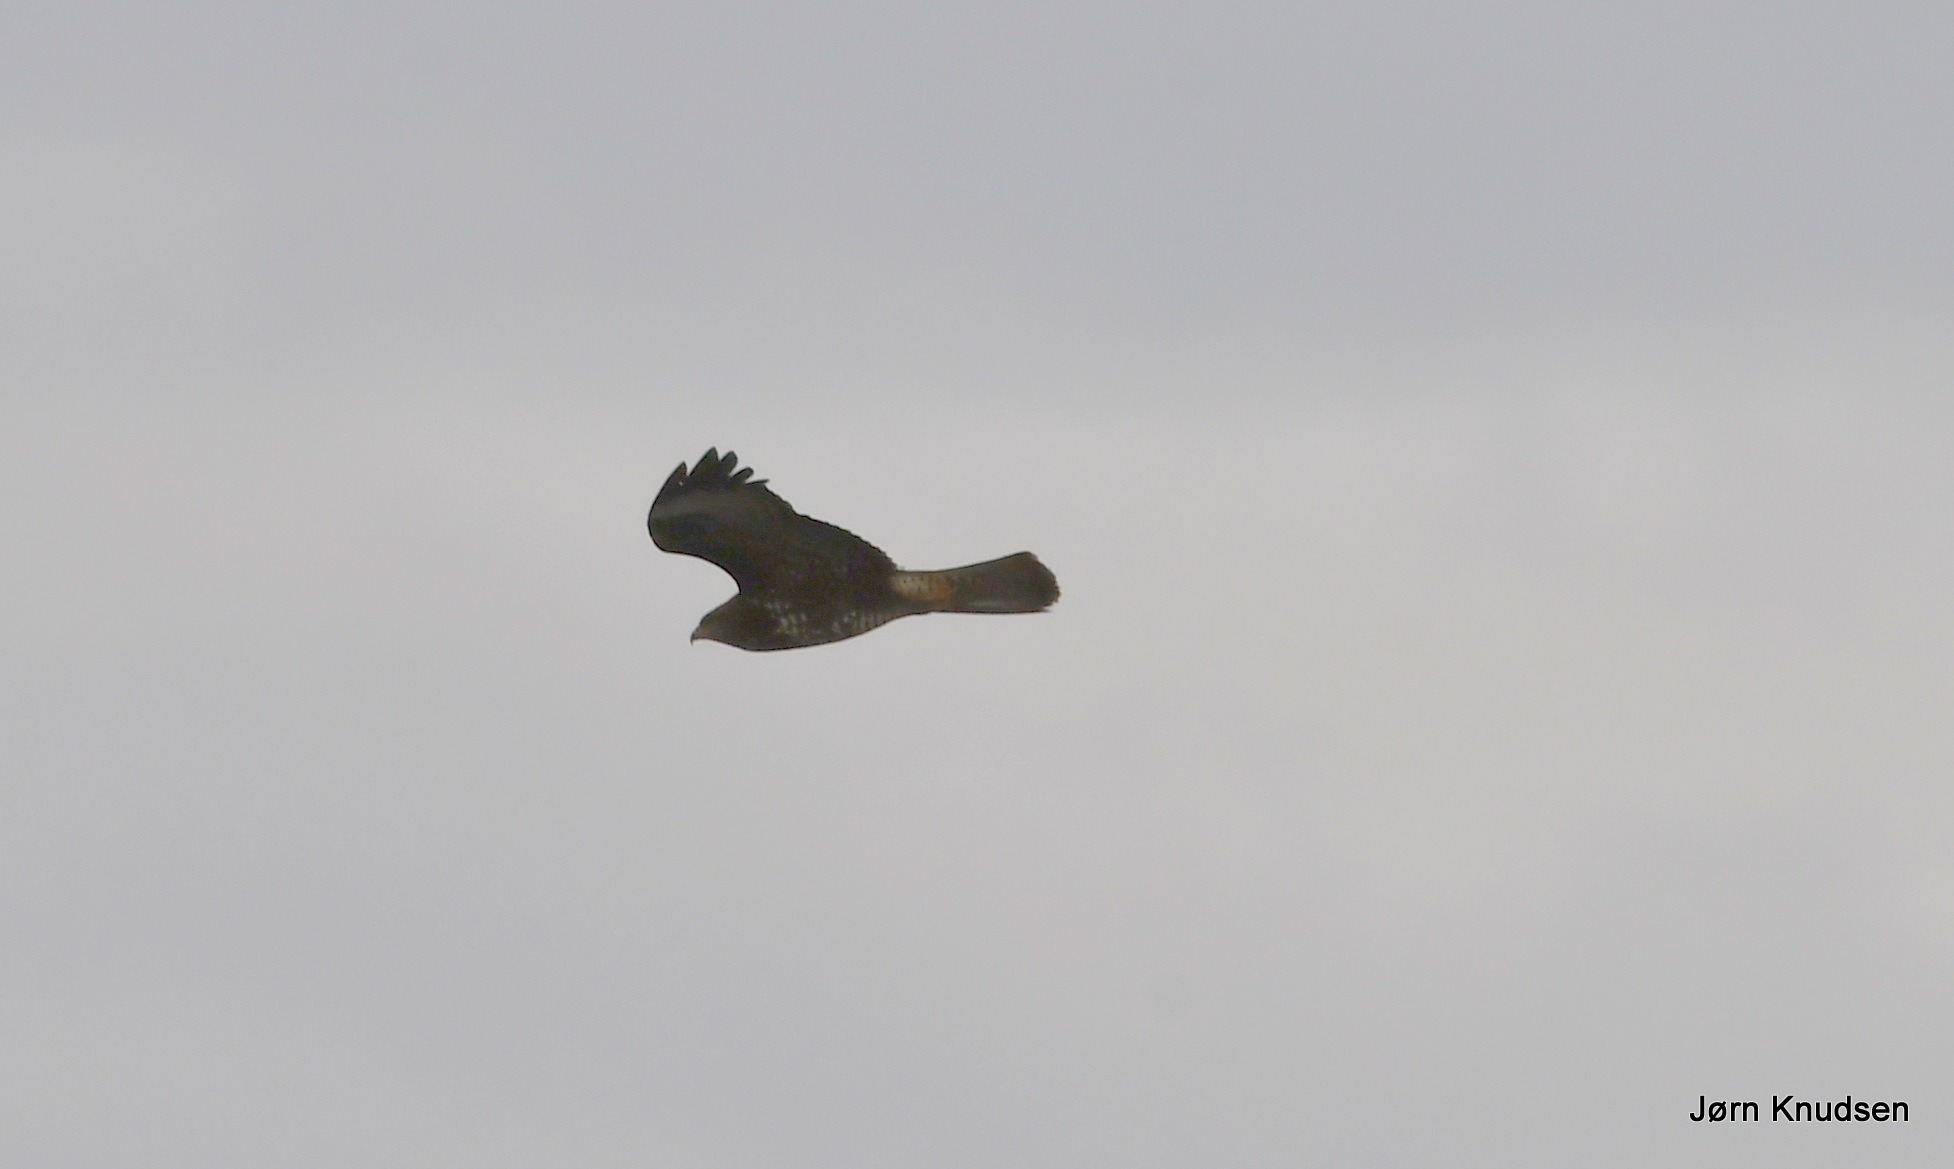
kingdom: Animalia
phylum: Chordata
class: Aves
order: Accipitriformes
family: Accipitridae
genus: Buteo
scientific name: Buteo buteo
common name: Musvåge
